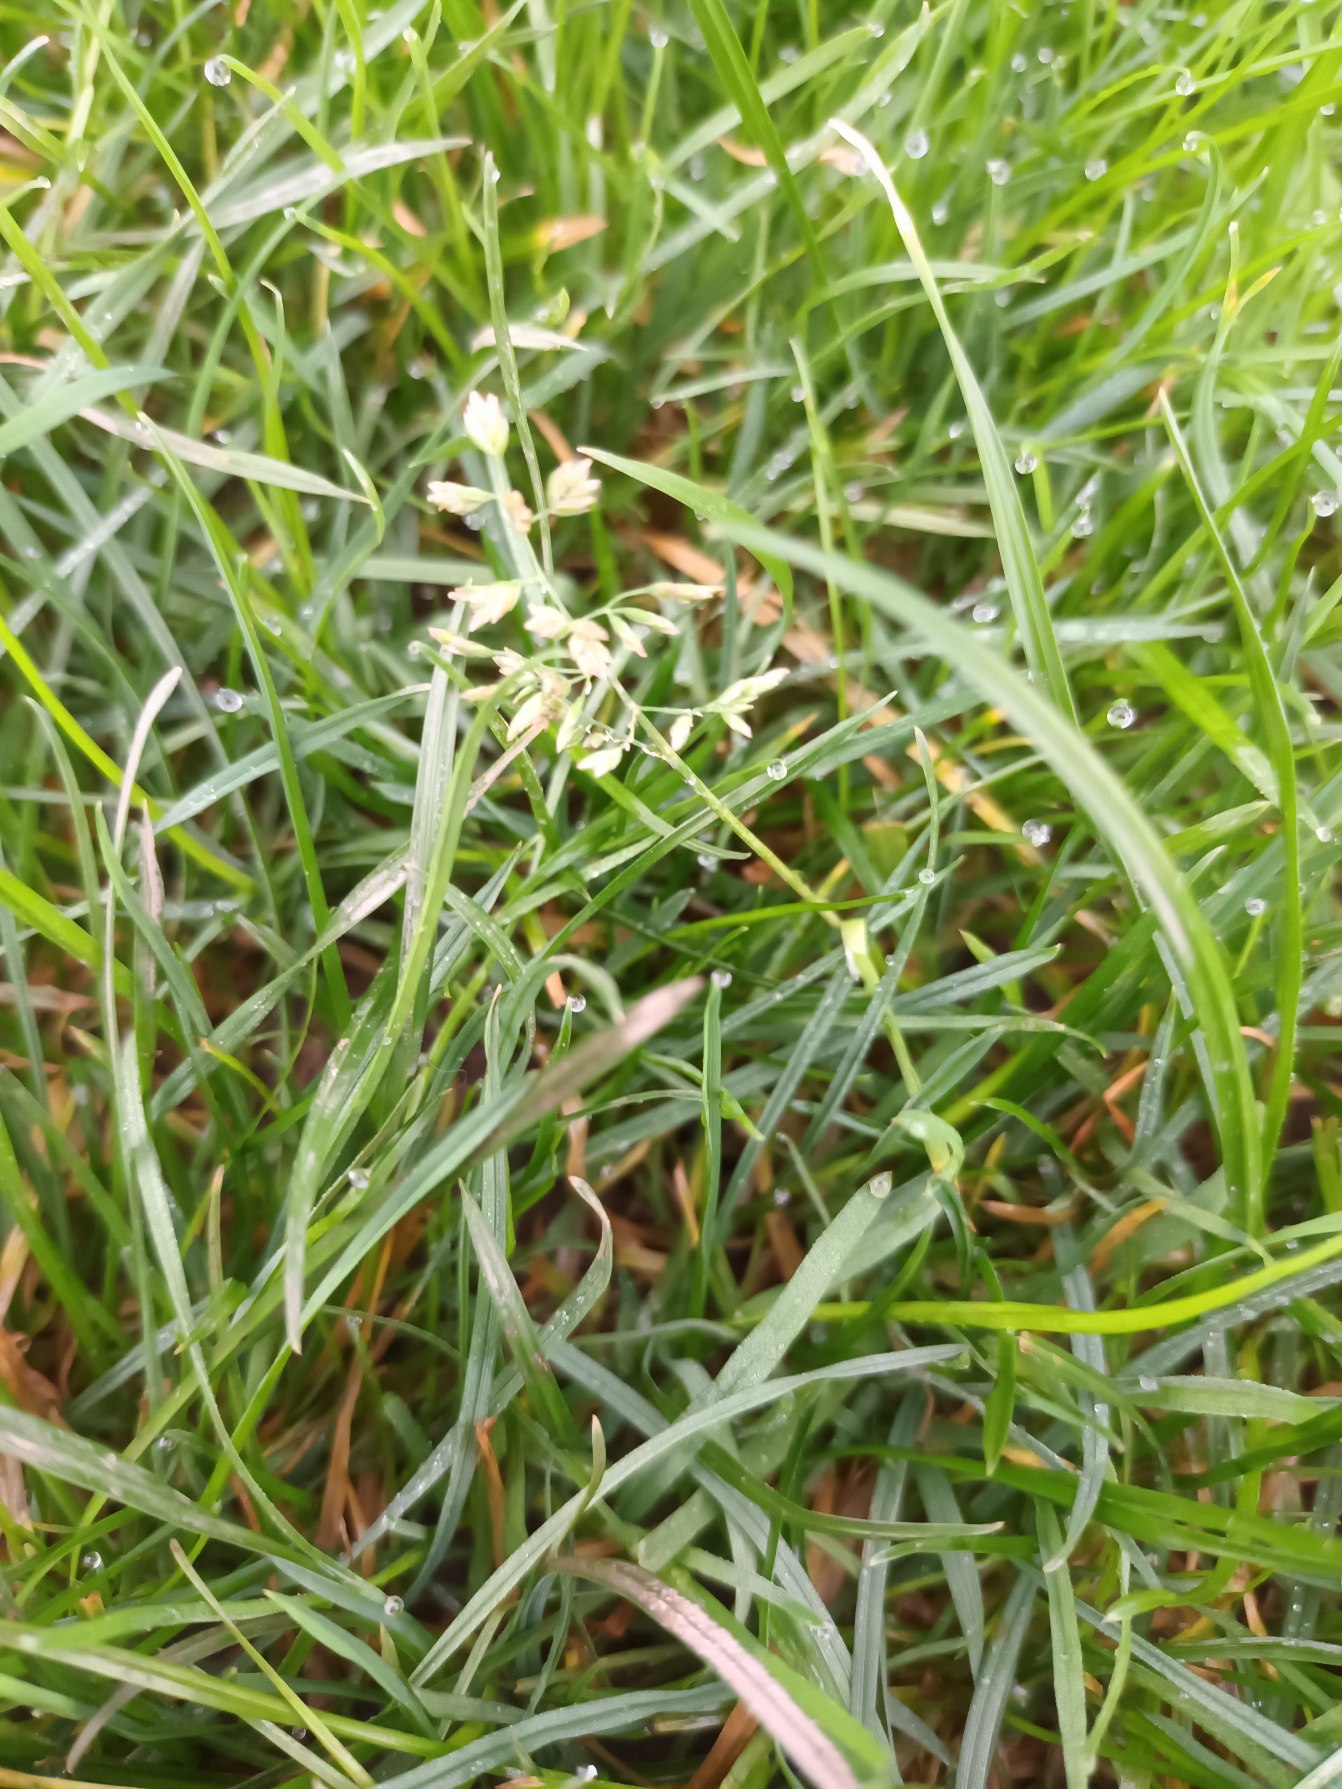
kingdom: Plantae
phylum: Tracheophyta
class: Liliopsida
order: Poales
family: Poaceae
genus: Poa
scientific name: Poa annua
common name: Enårig rapgræs
